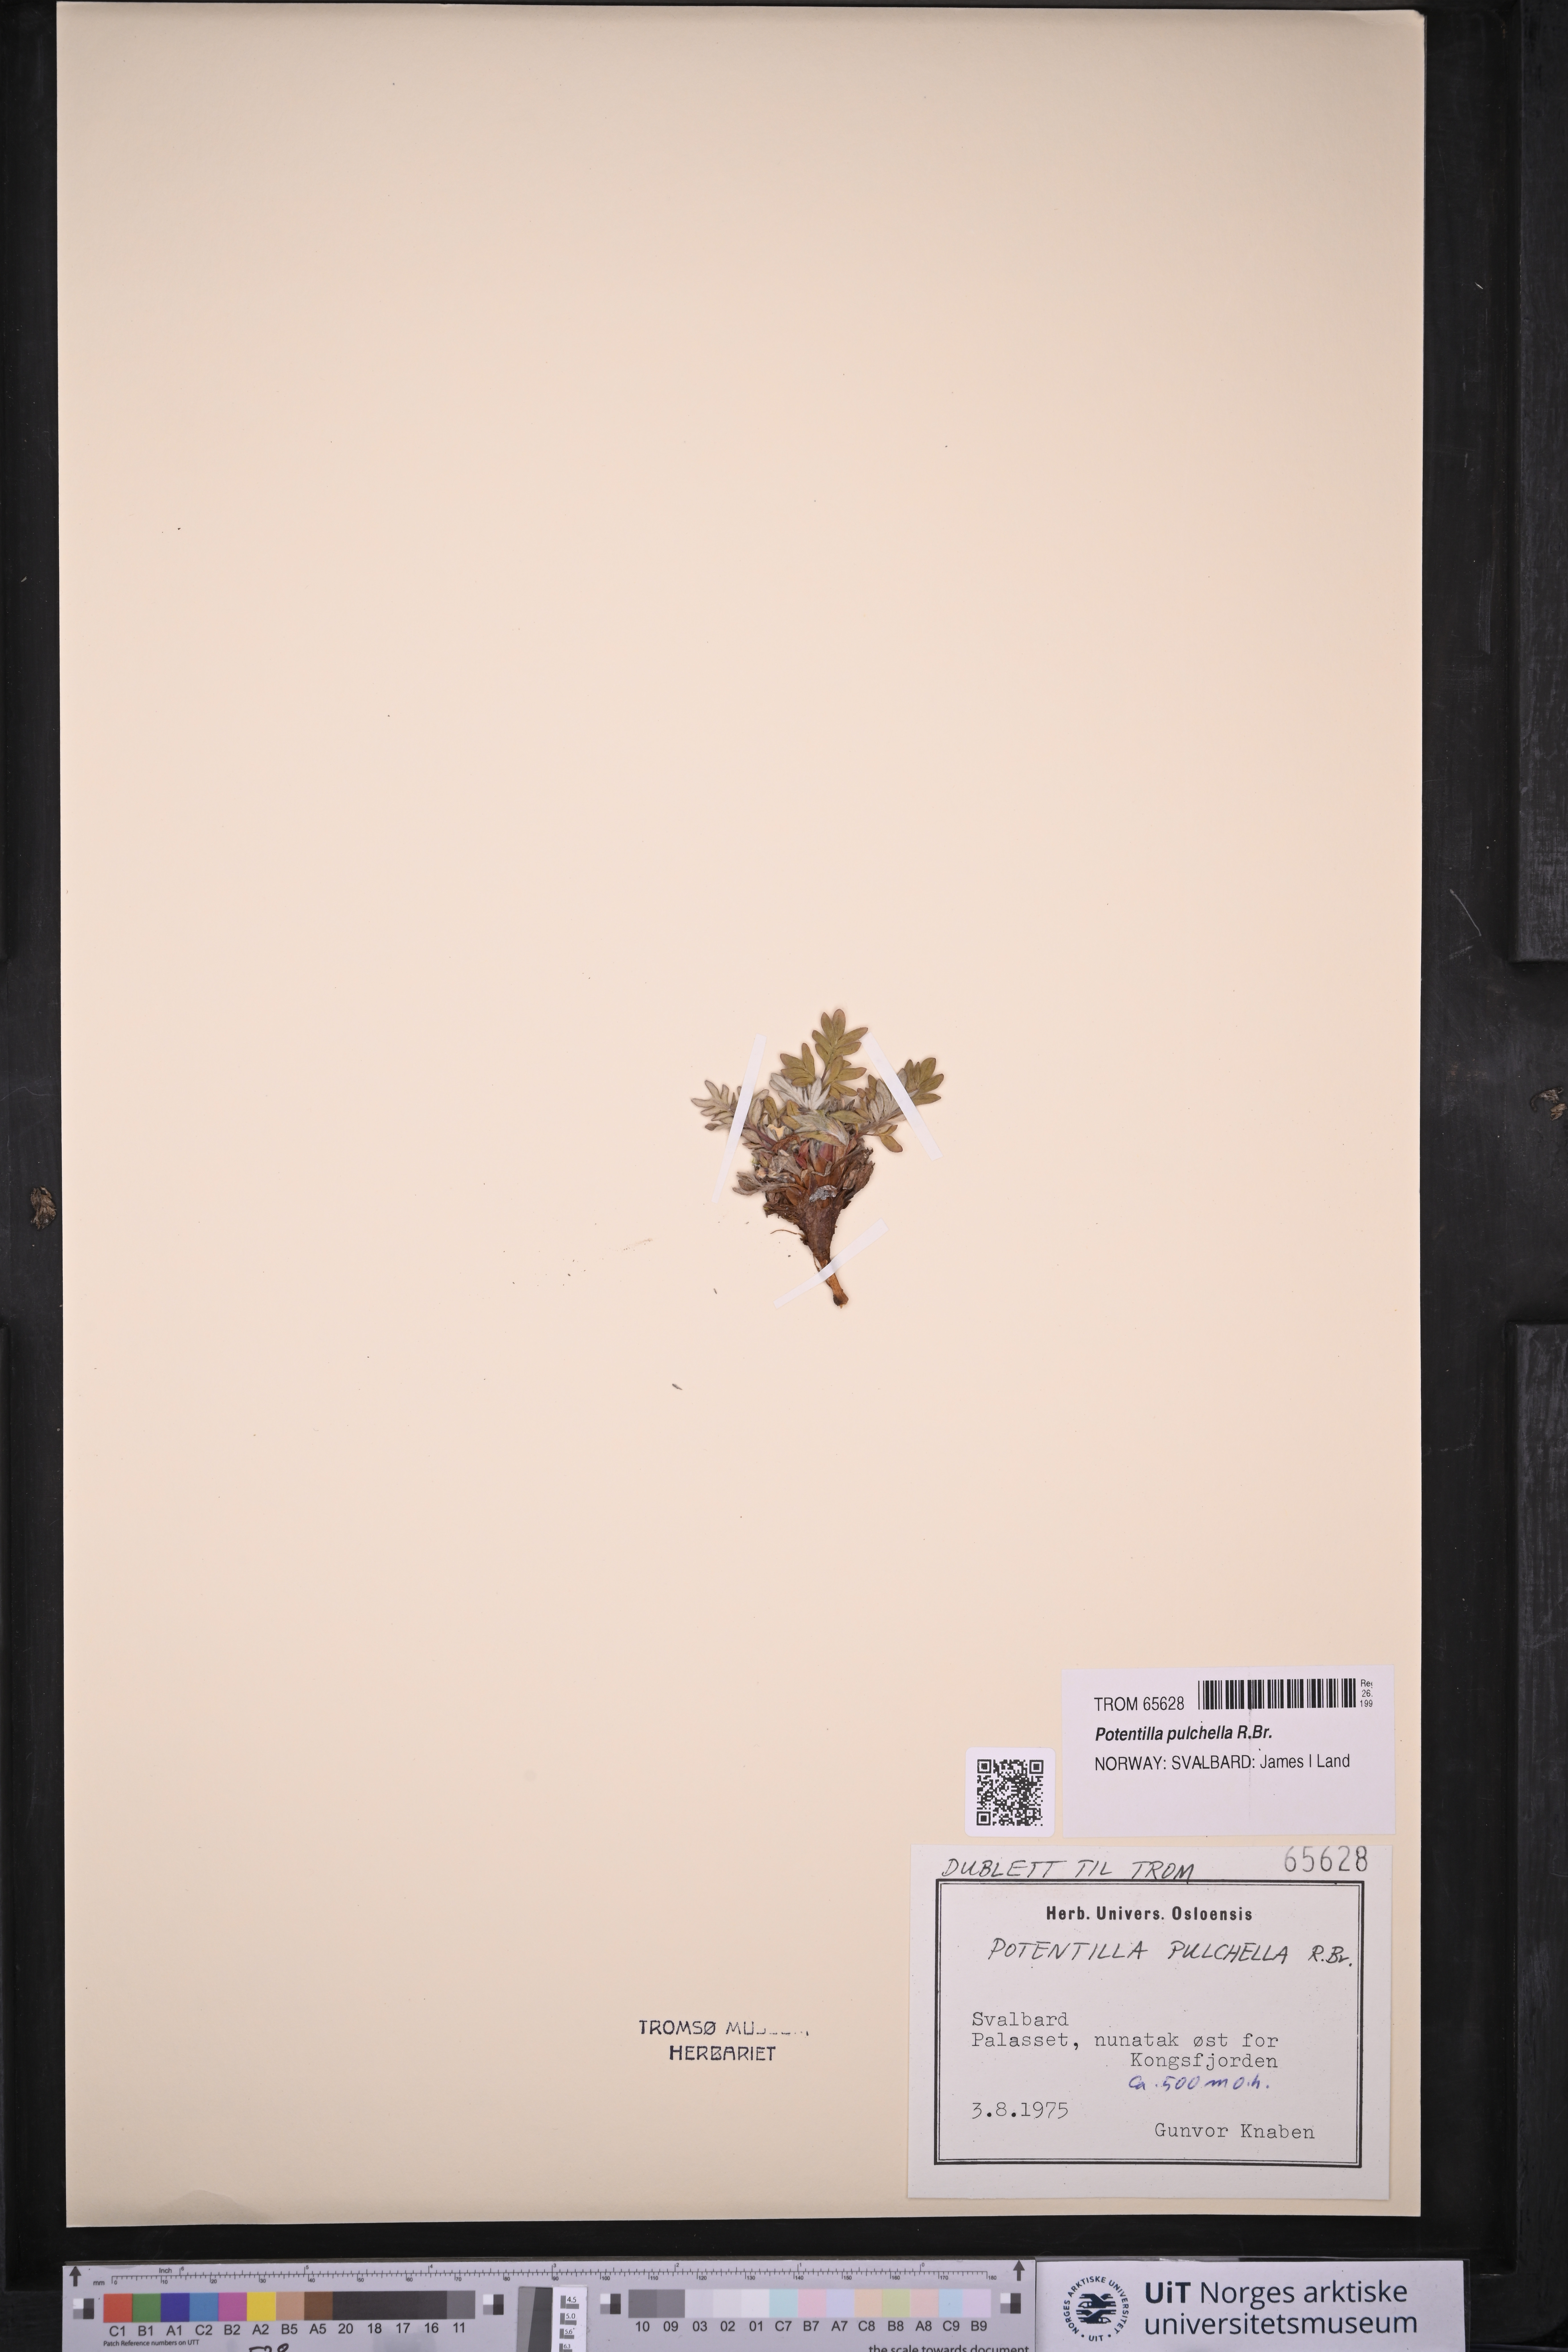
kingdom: Plantae
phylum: Tracheophyta
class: Magnoliopsida
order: Rosales
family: Rosaceae
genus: Potentilla
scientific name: Potentilla pulchella
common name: Pretty cinquefoil
